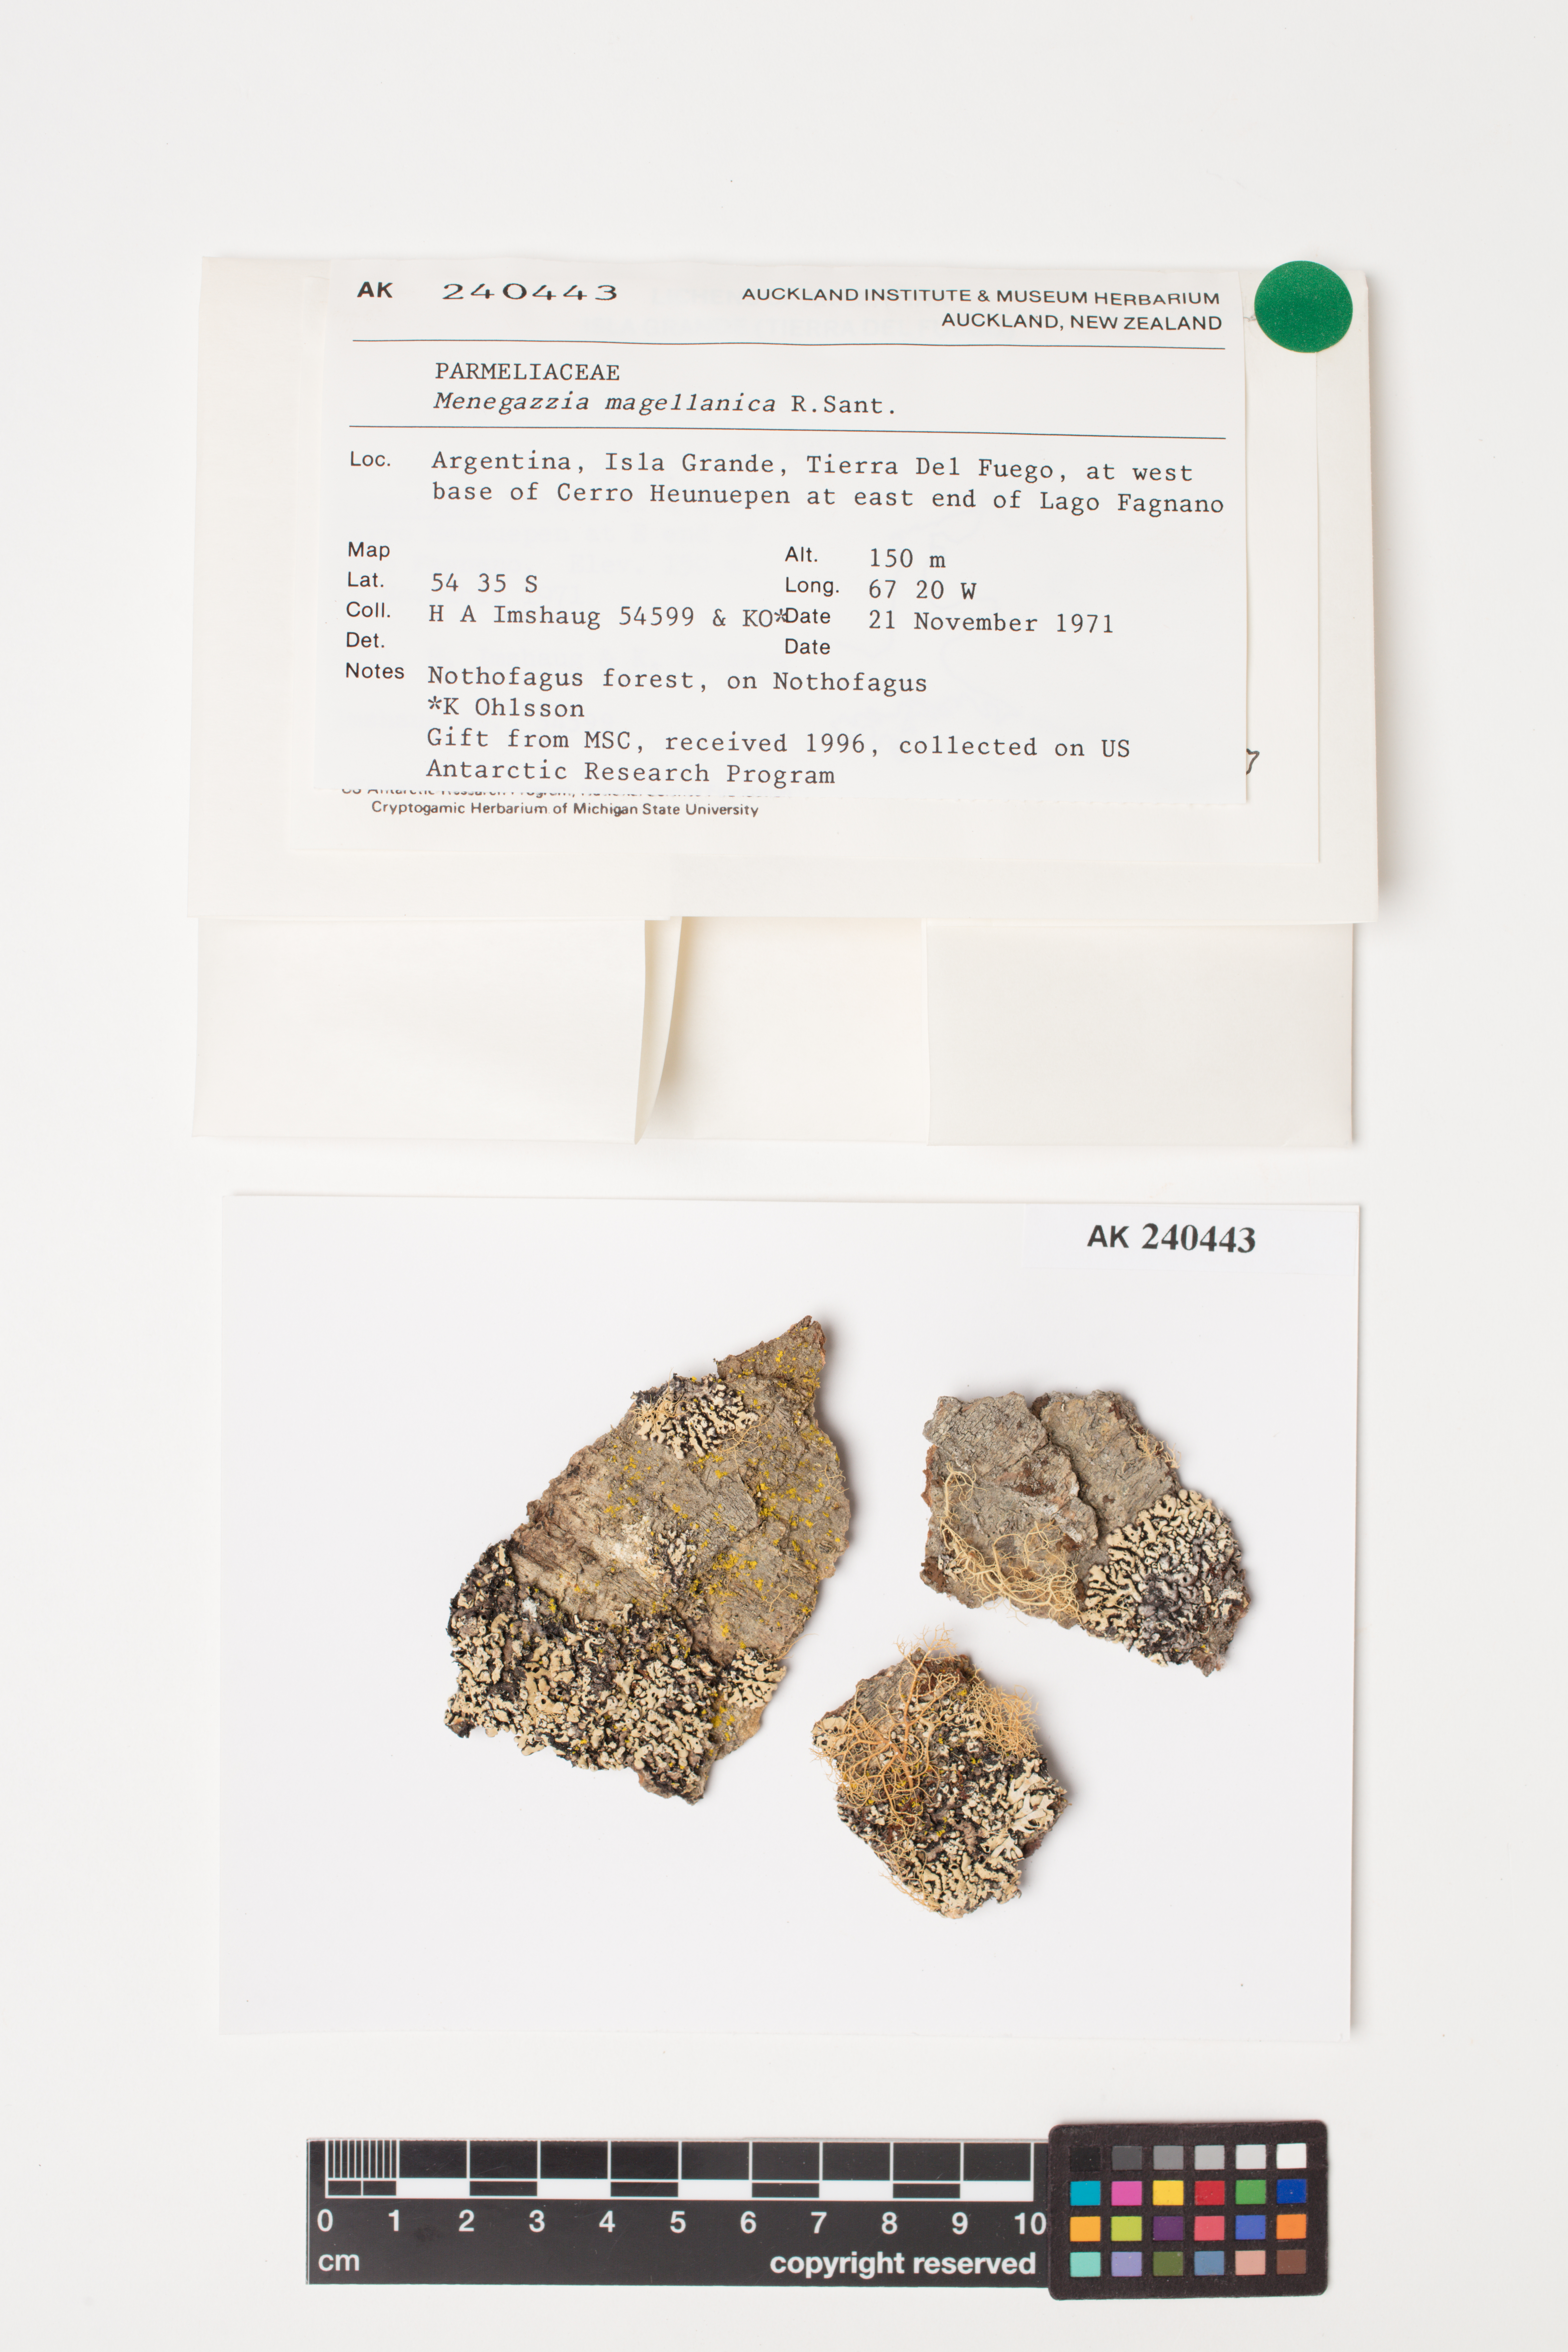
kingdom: Fungi
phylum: Ascomycota
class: Lecanoromycetes
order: Lecanorales
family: Parmeliaceae
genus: Menegazzia
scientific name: Menegazzia subpertusa
